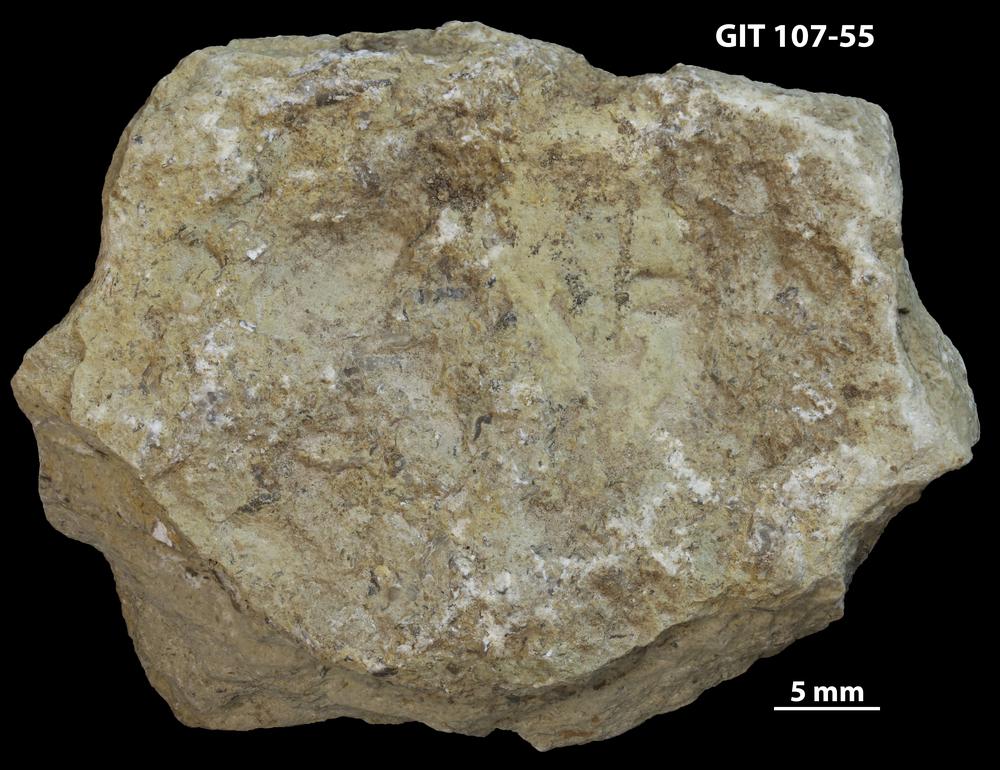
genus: Conichnus
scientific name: Conichnus
